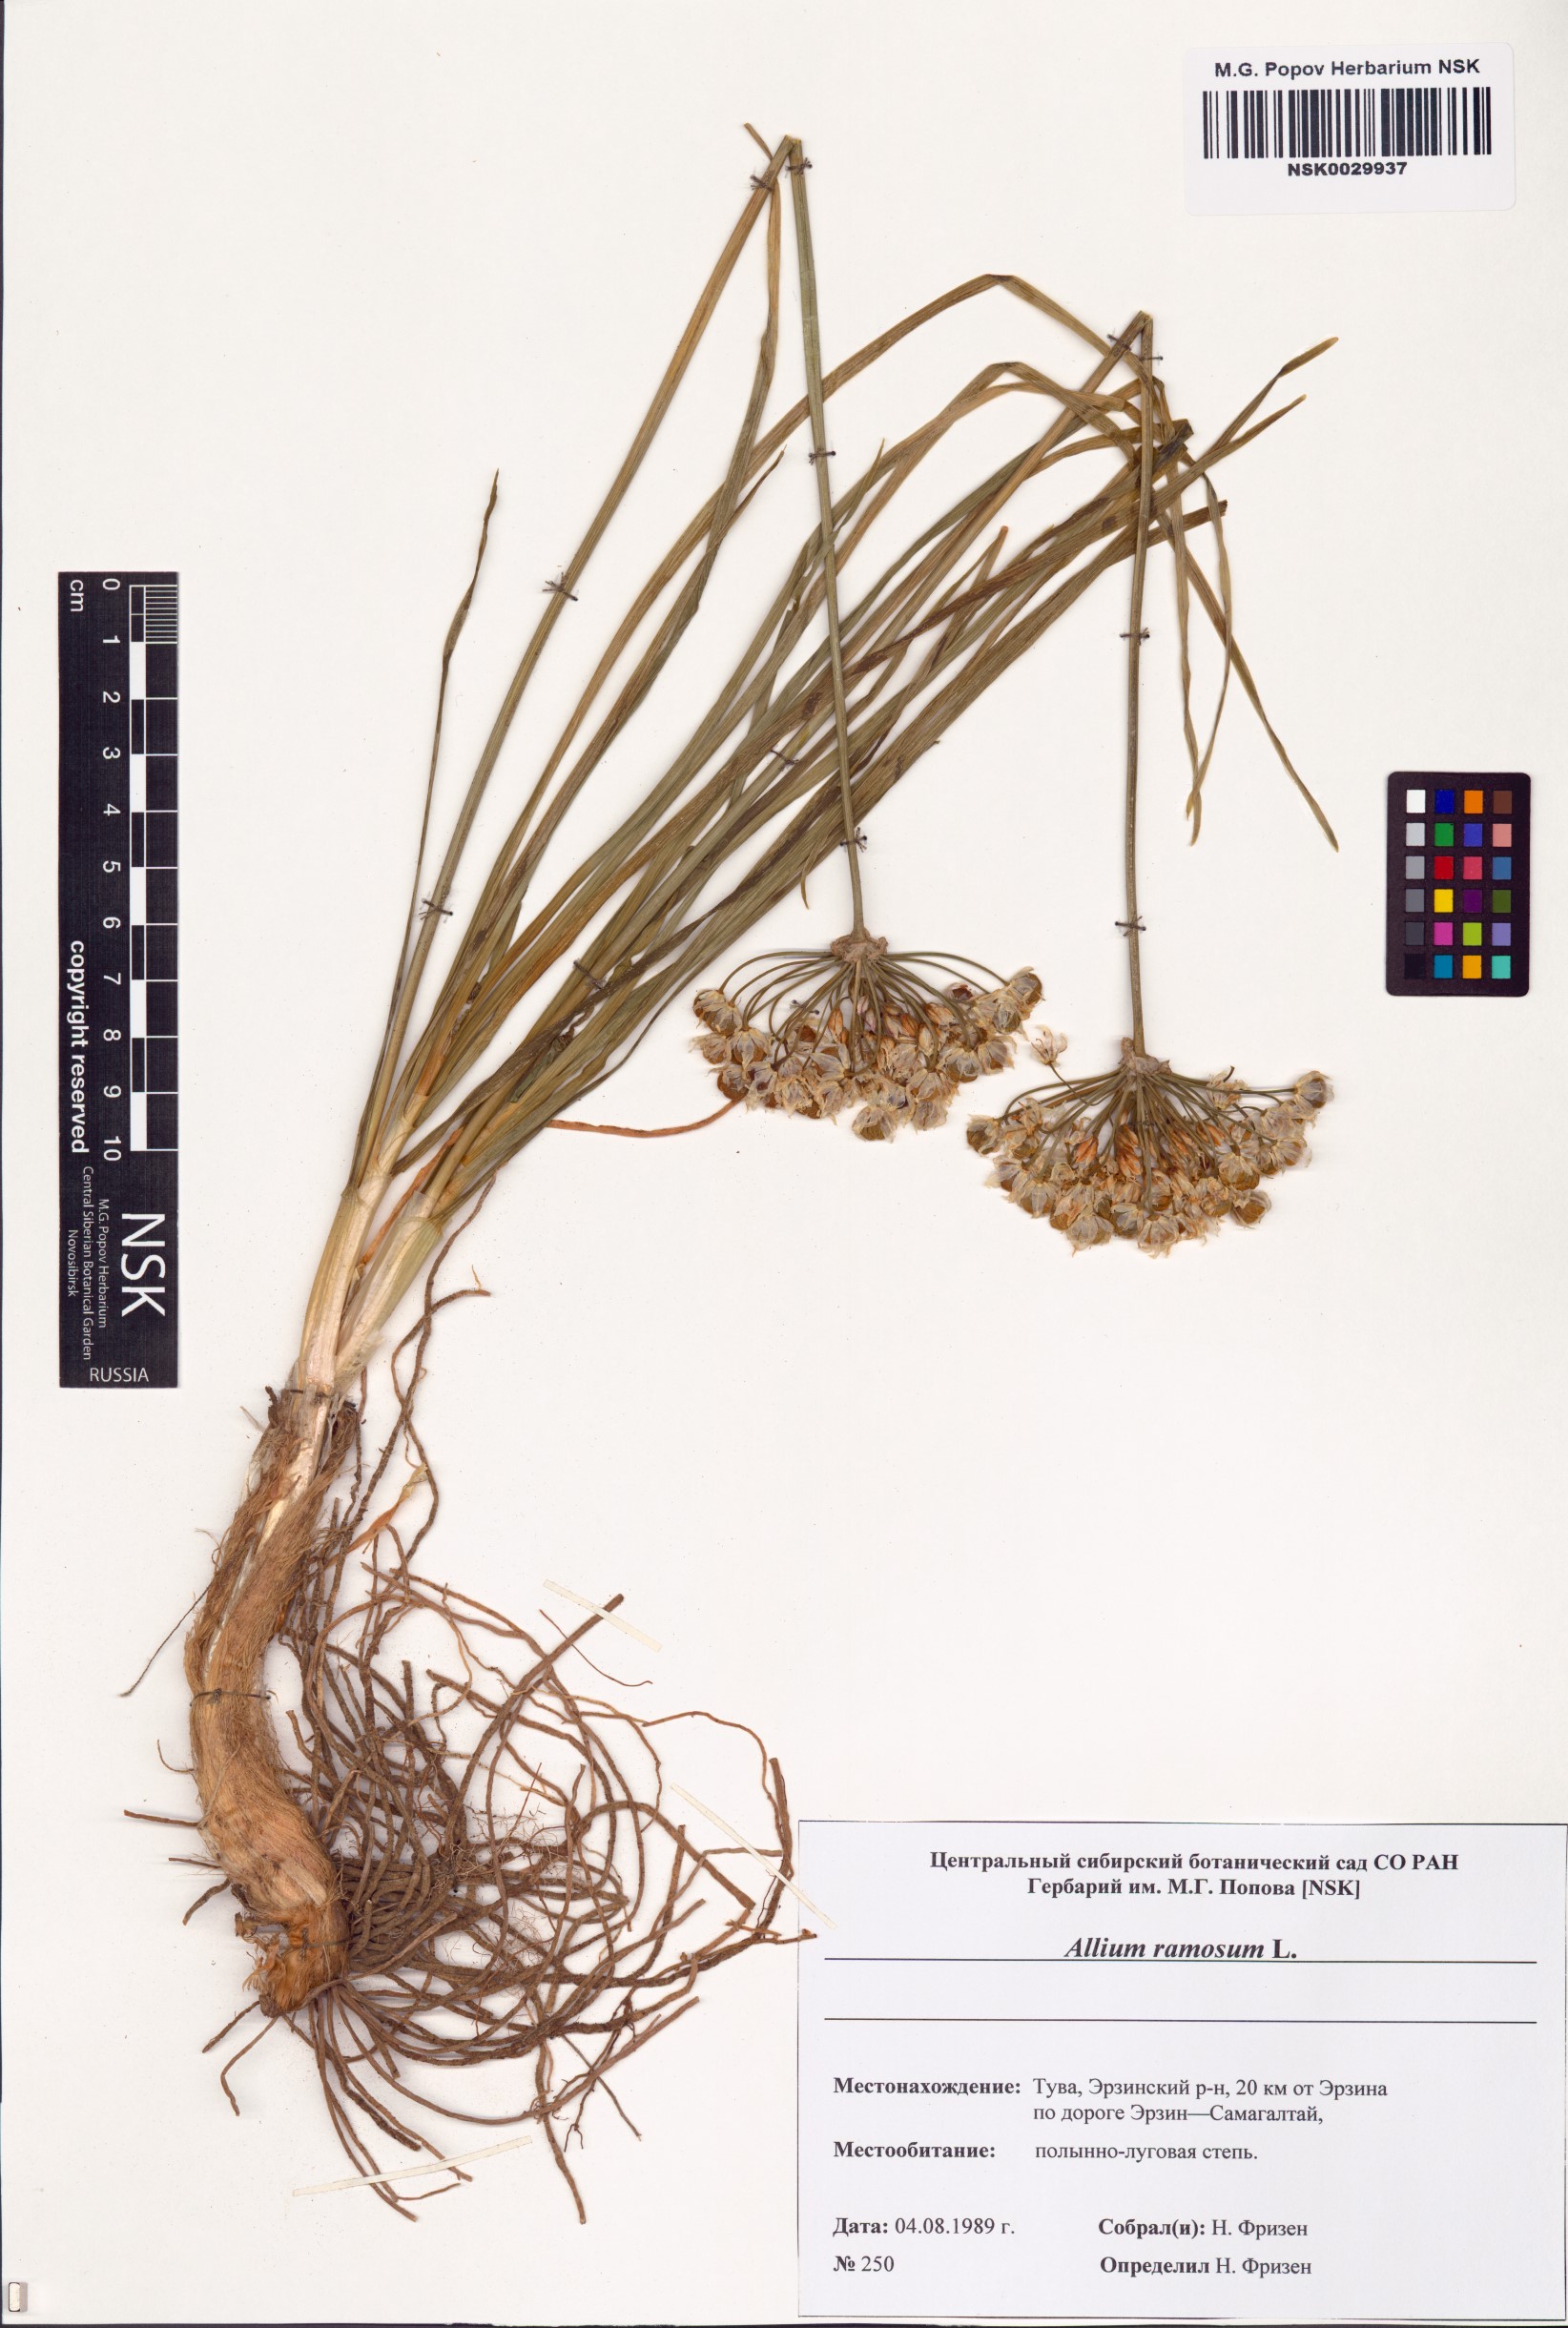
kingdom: Plantae
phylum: Tracheophyta
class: Liliopsida
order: Asparagales
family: Amaryllidaceae
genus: Allium
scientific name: Allium ramosum
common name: Fragrant garlic
